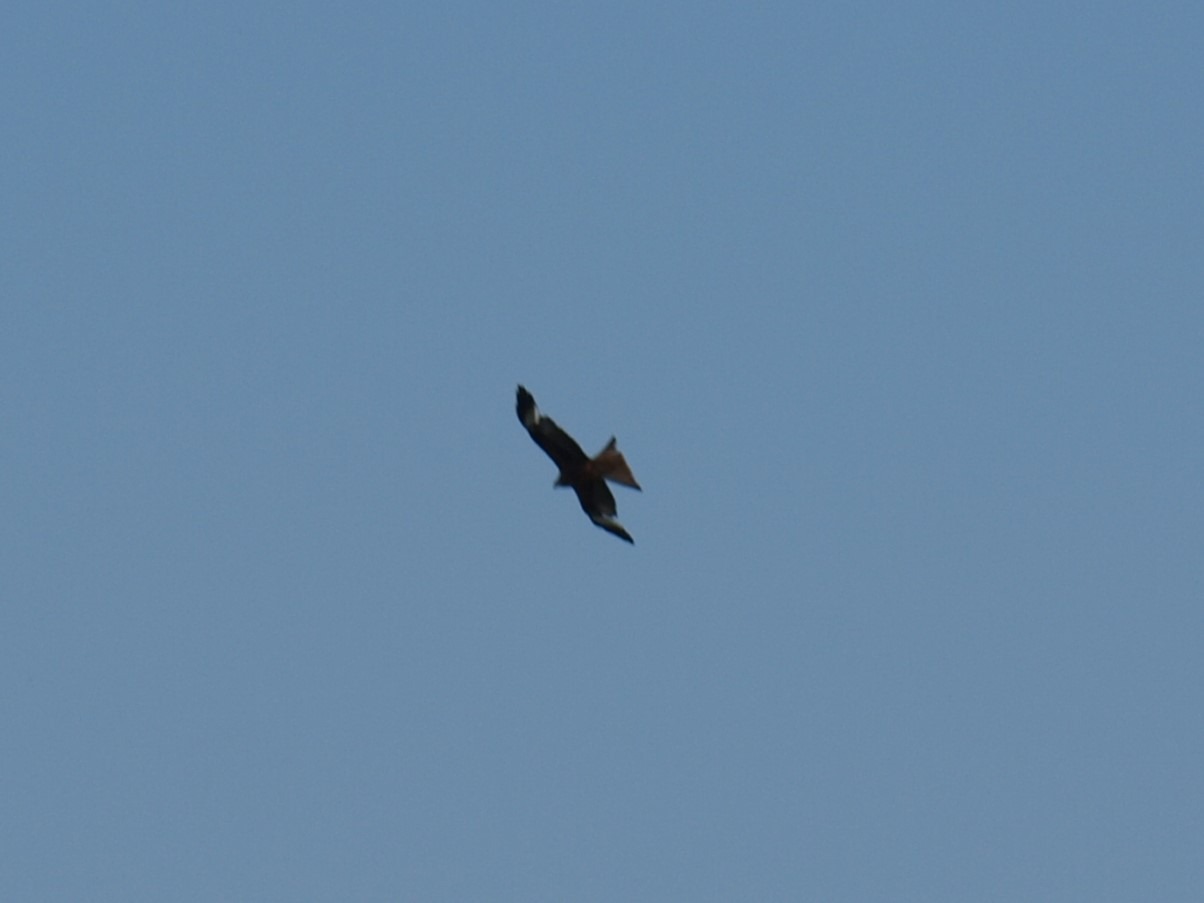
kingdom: Animalia
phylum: Chordata
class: Aves
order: Accipitriformes
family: Accipitridae
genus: Milvus
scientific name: Milvus milvus
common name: Rød glente
